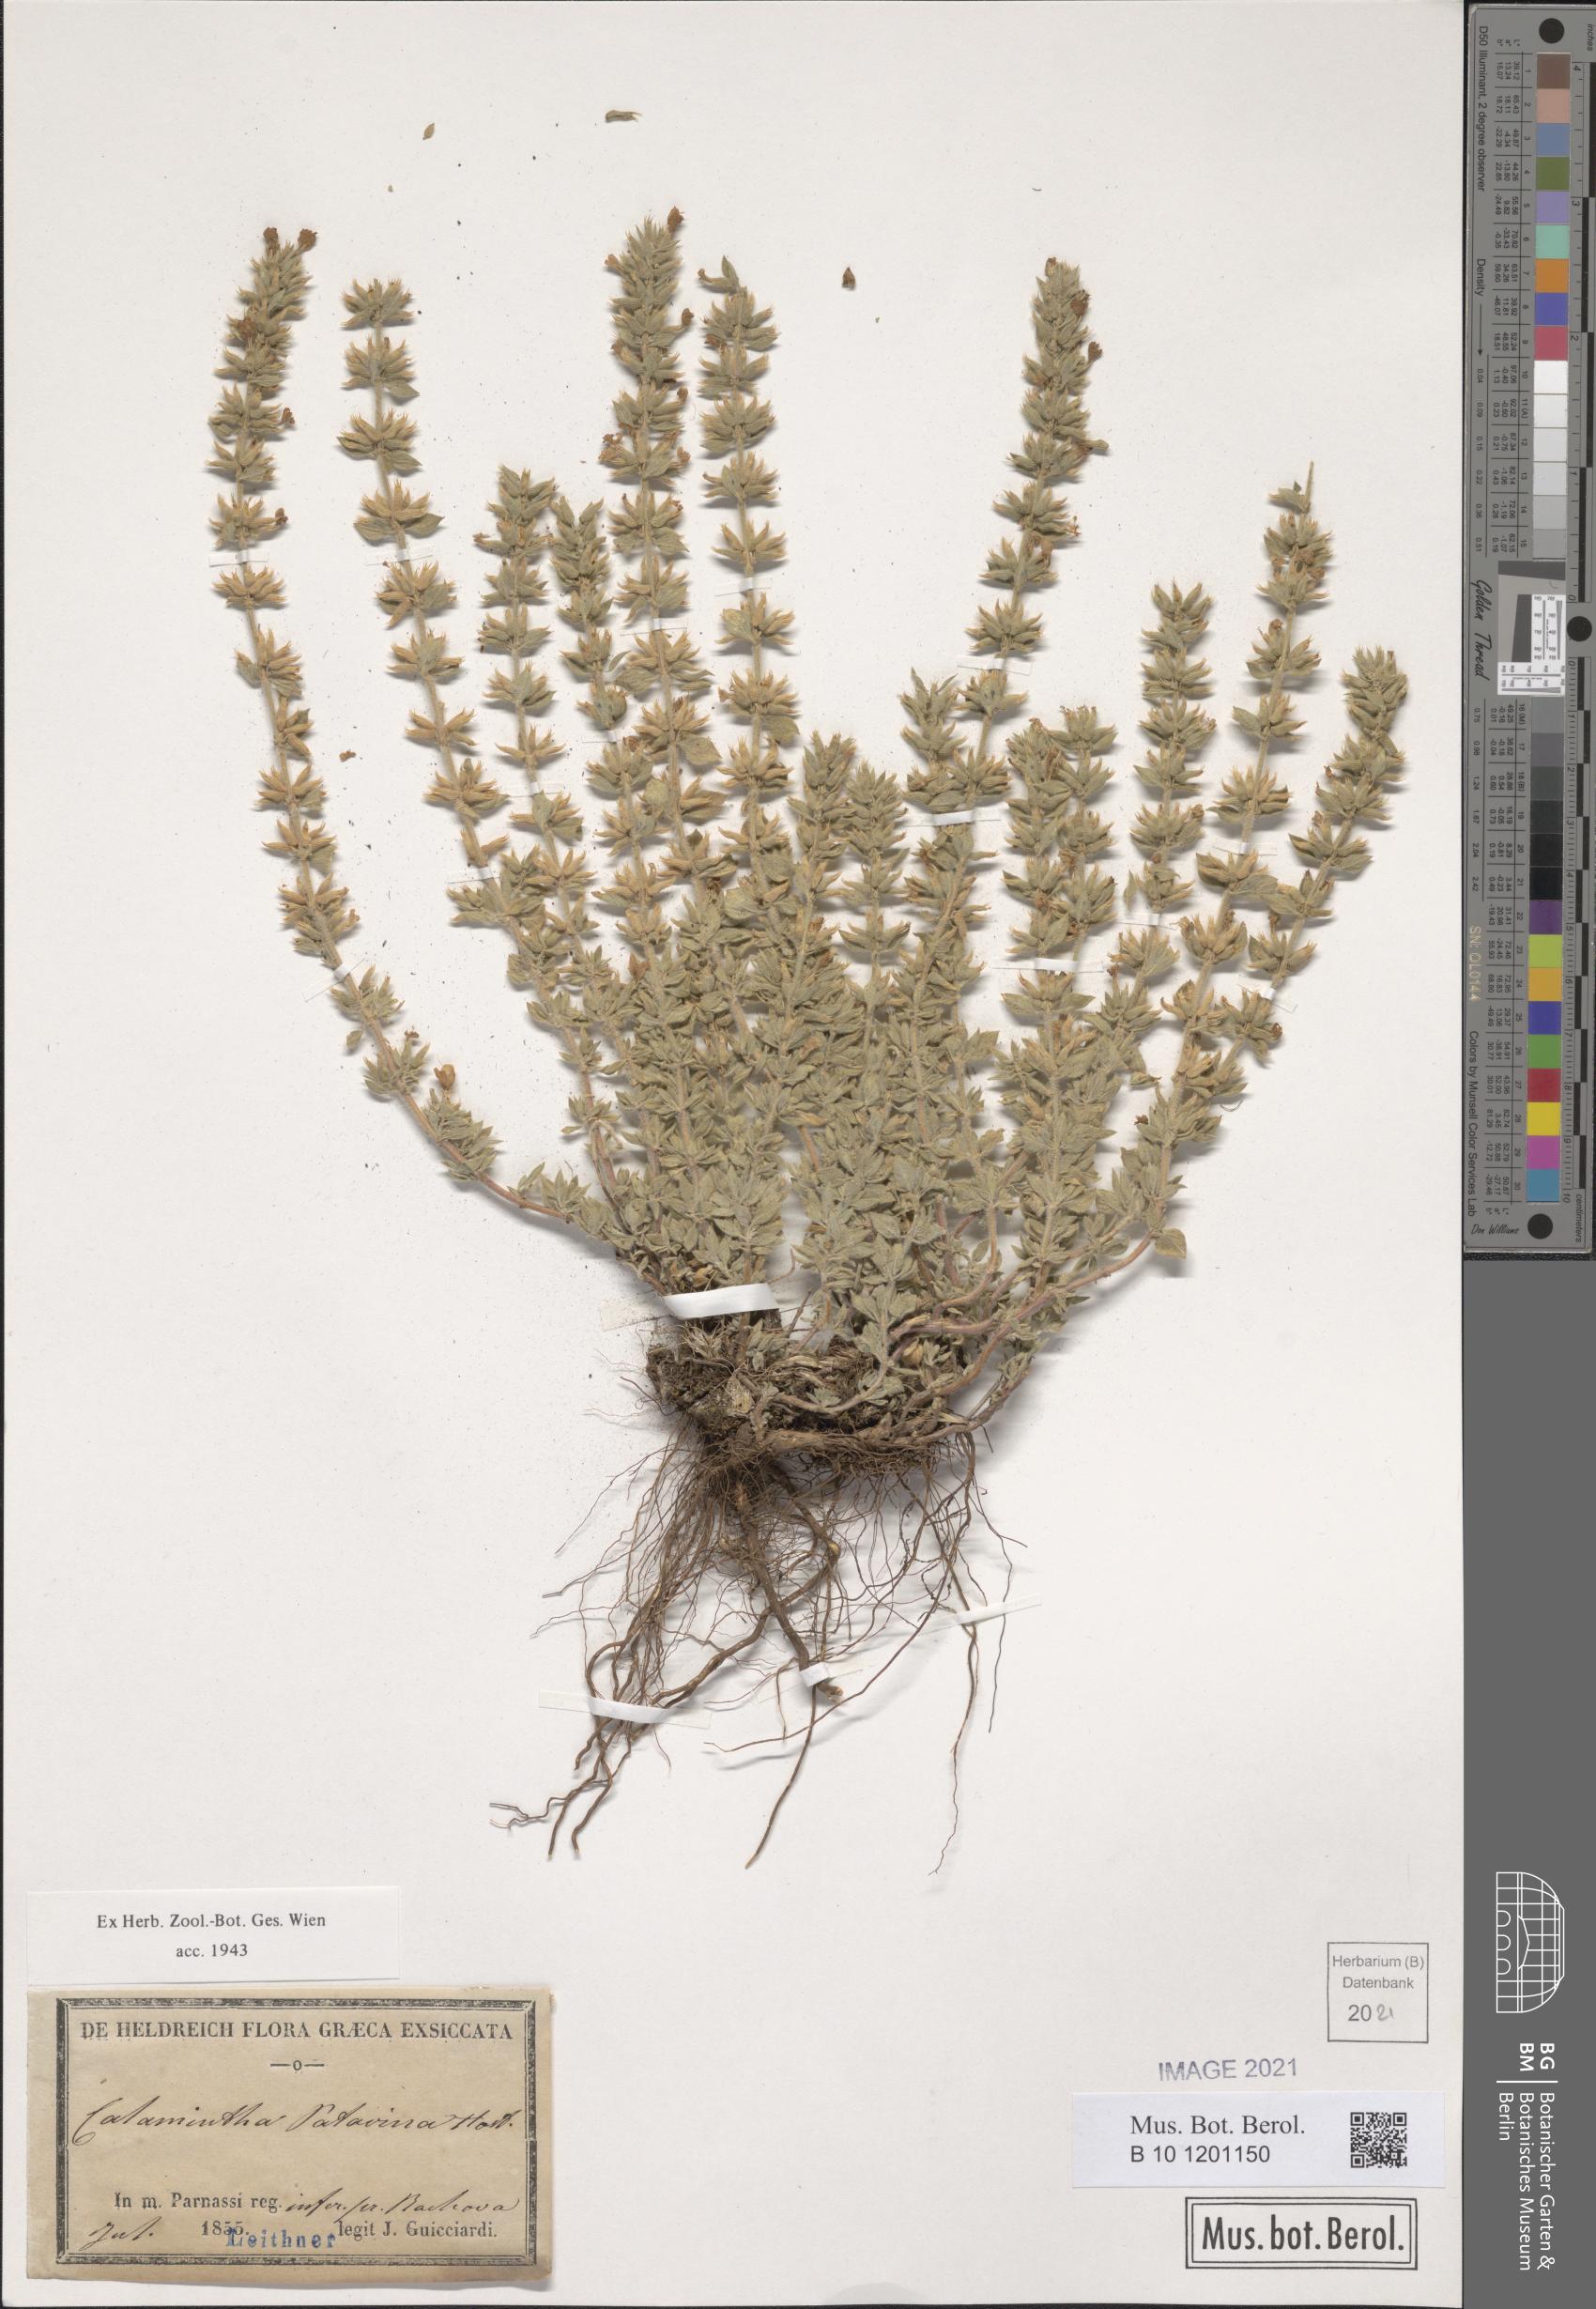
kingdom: Plantae
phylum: Tracheophyta
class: Magnoliopsida
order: Lamiales
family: Lamiaceae
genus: Clinopodium
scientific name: Clinopodium alpinum
